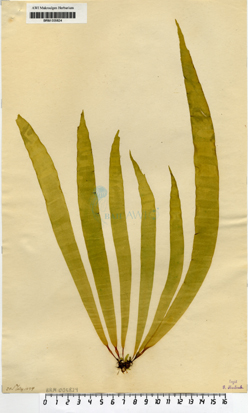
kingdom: Chromista
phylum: Ochrophyta
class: Phaeophyceae
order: Laminariales
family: Laminariaceae
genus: Saccharina
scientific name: Saccharina latissima
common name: Poor man's weather glass
